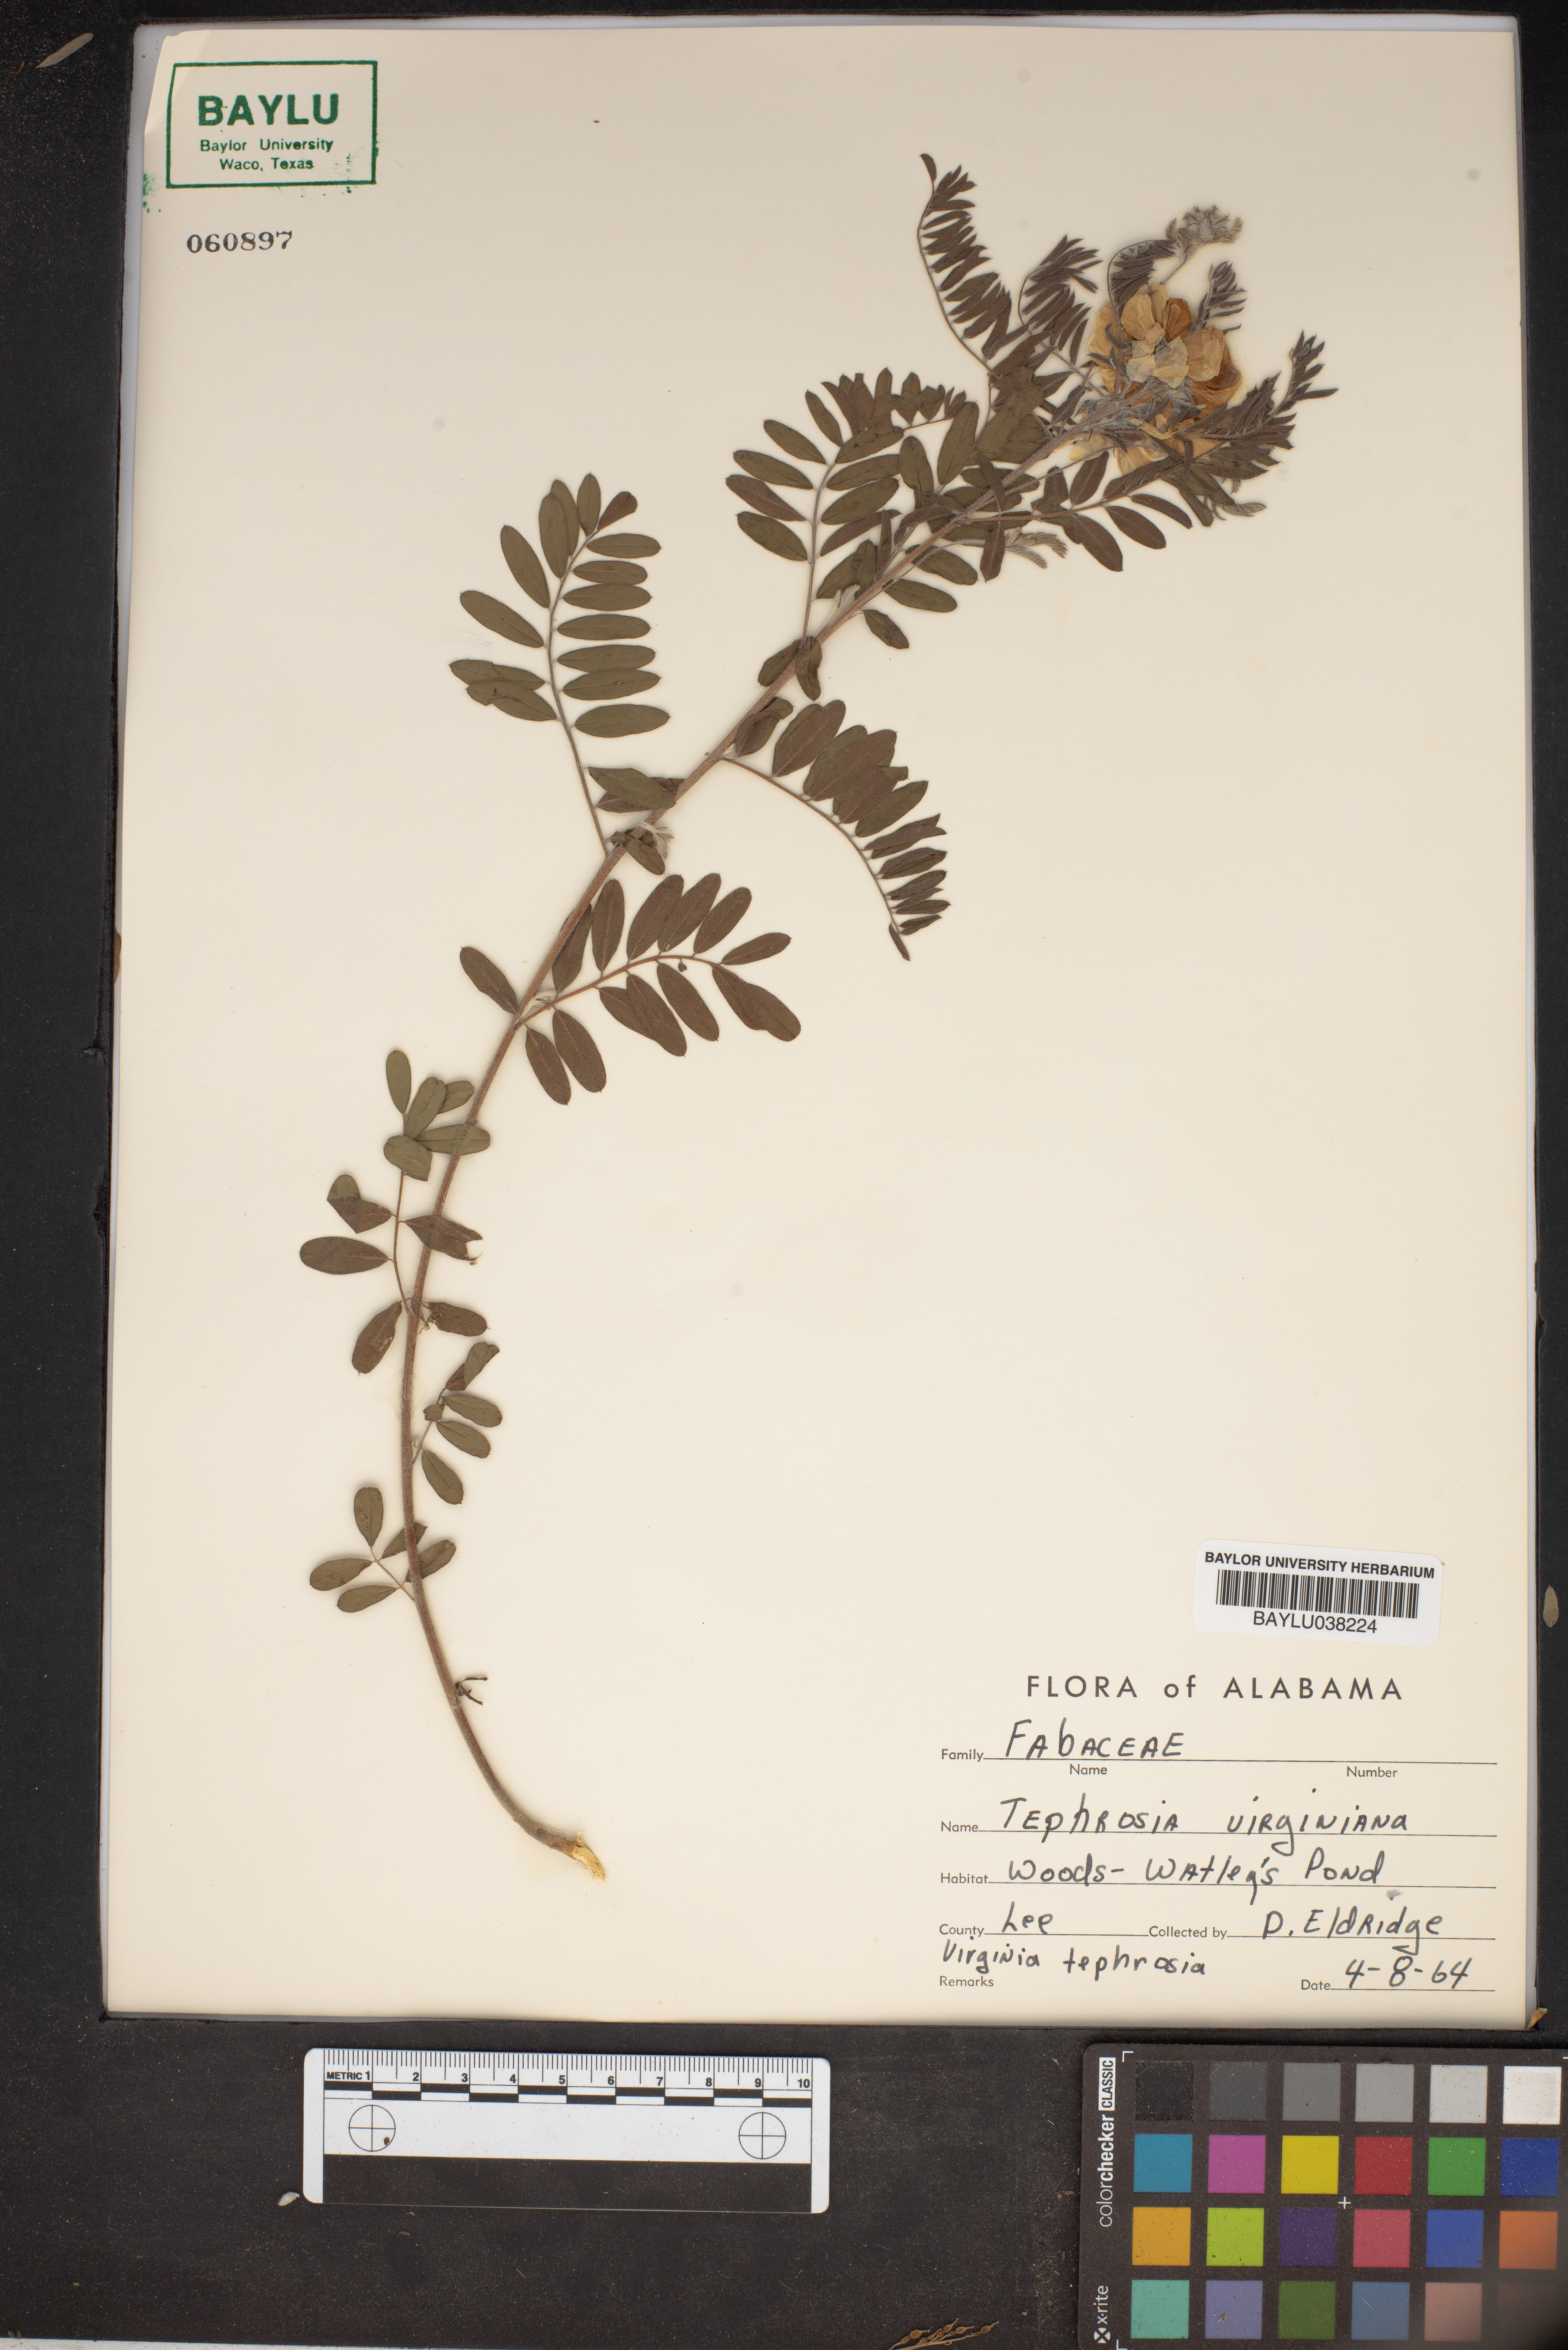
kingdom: Plantae
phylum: Tracheophyta
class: Magnoliopsida
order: Fabales
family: Fabaceae
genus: Tephrosia
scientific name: Tephrosia virginiana
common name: Rabbit-pea
